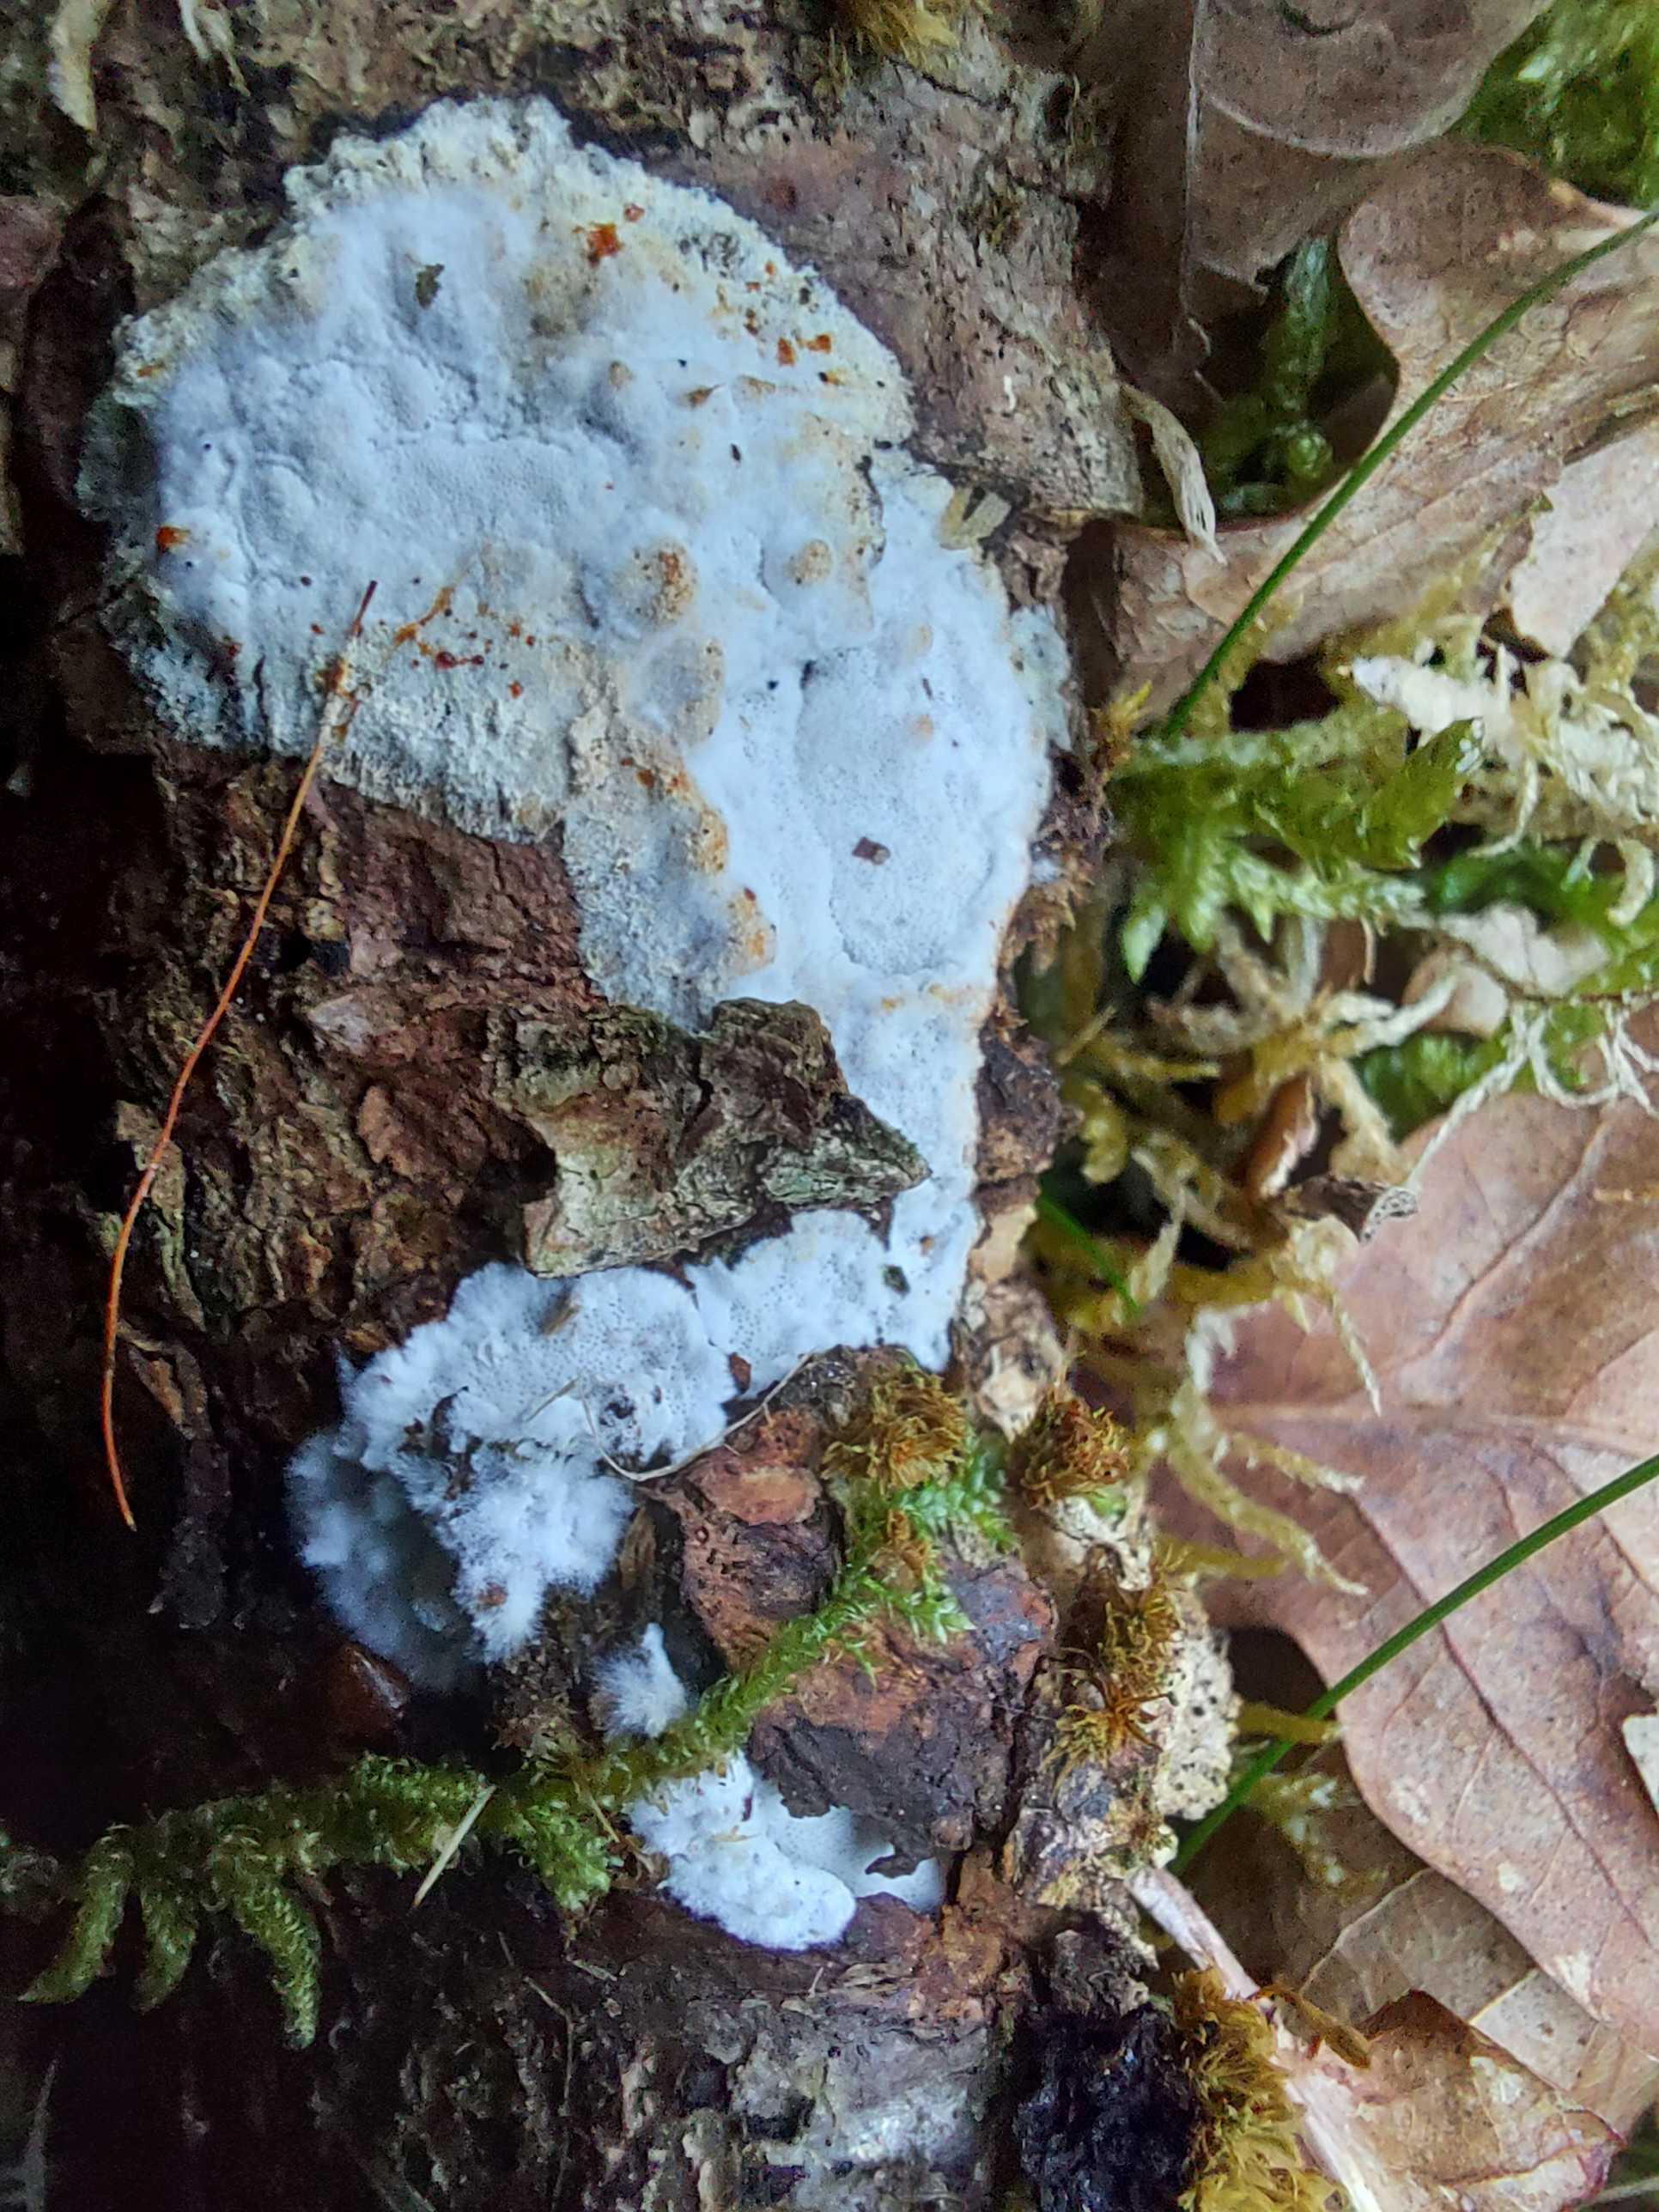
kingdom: Fungi
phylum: Basidiomycota
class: Agaricomycetes
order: Polyporales
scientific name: Polyporales
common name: poresvampordenen
